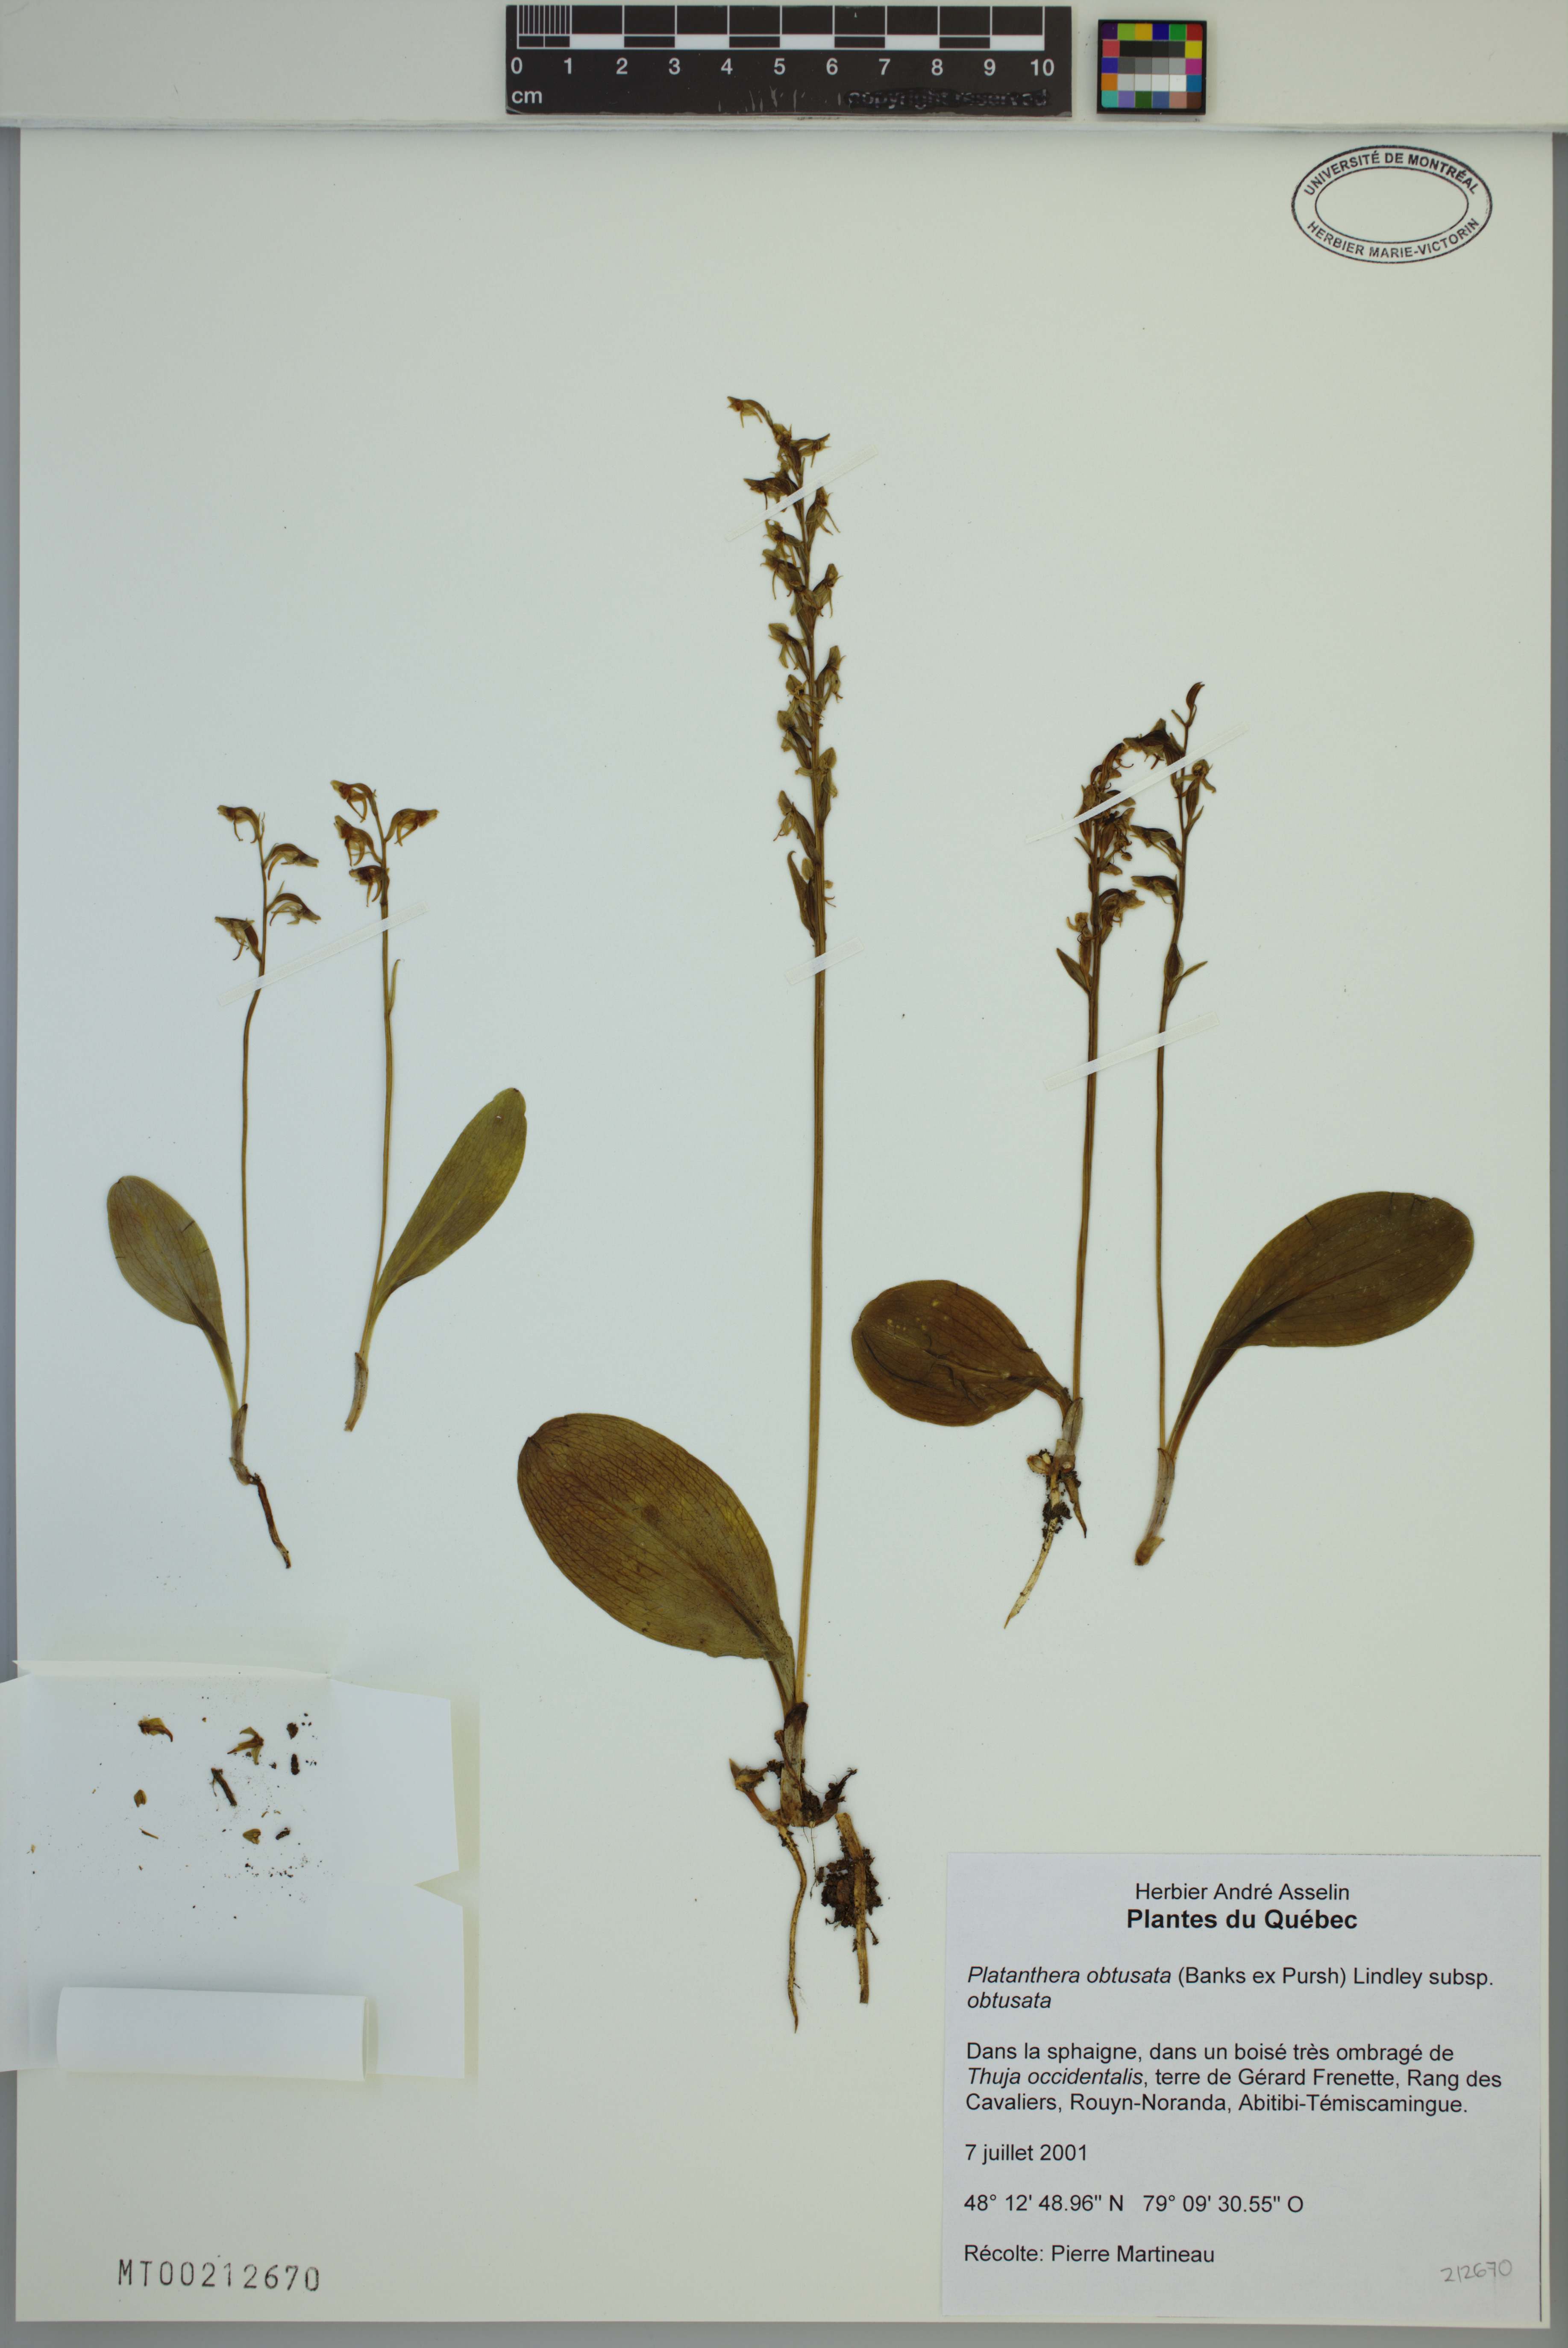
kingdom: Plantae
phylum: Tracheophyta
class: Liliopsida
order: Asparagales
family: Orchidaceae
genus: Platanthera
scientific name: Platanthera obtusata
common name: Blunt bog orchid
